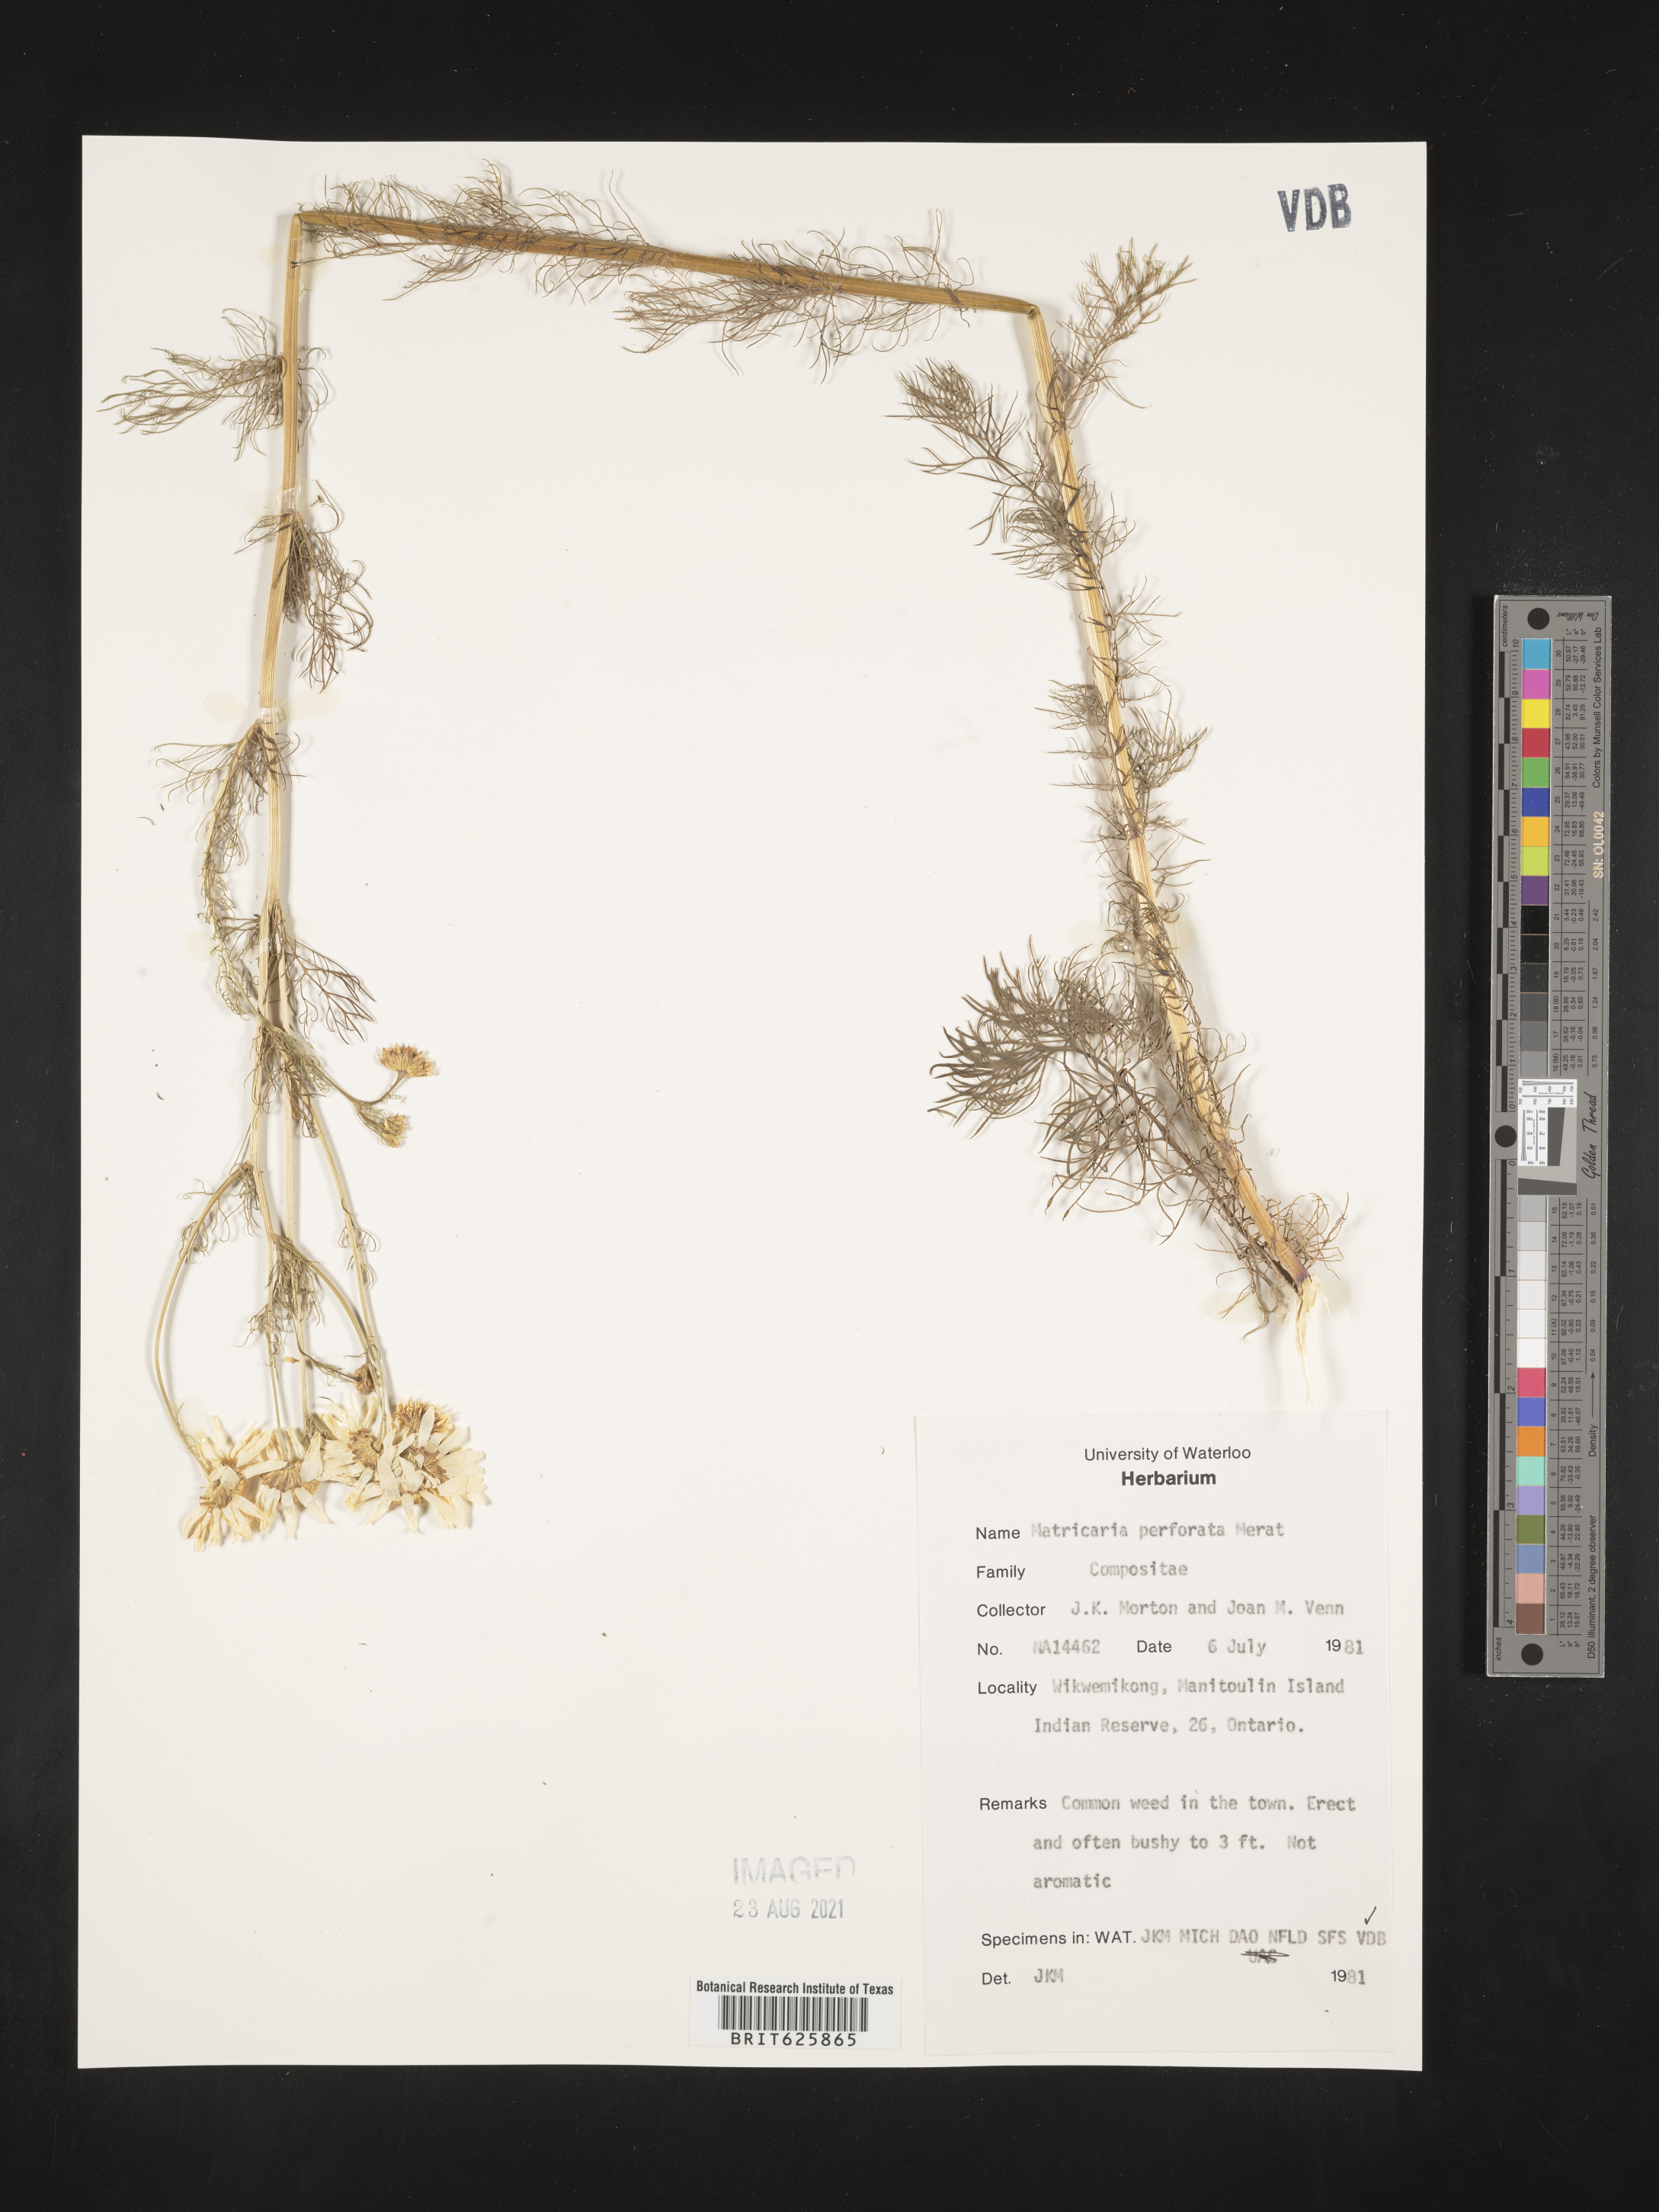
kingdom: Plantae
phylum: Tracheophyta
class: Magnoliopsida
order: Asterales
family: Asteraceae
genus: Tripleurospermum
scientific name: Tripleurospermum inodorum
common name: Scentless mayweed
